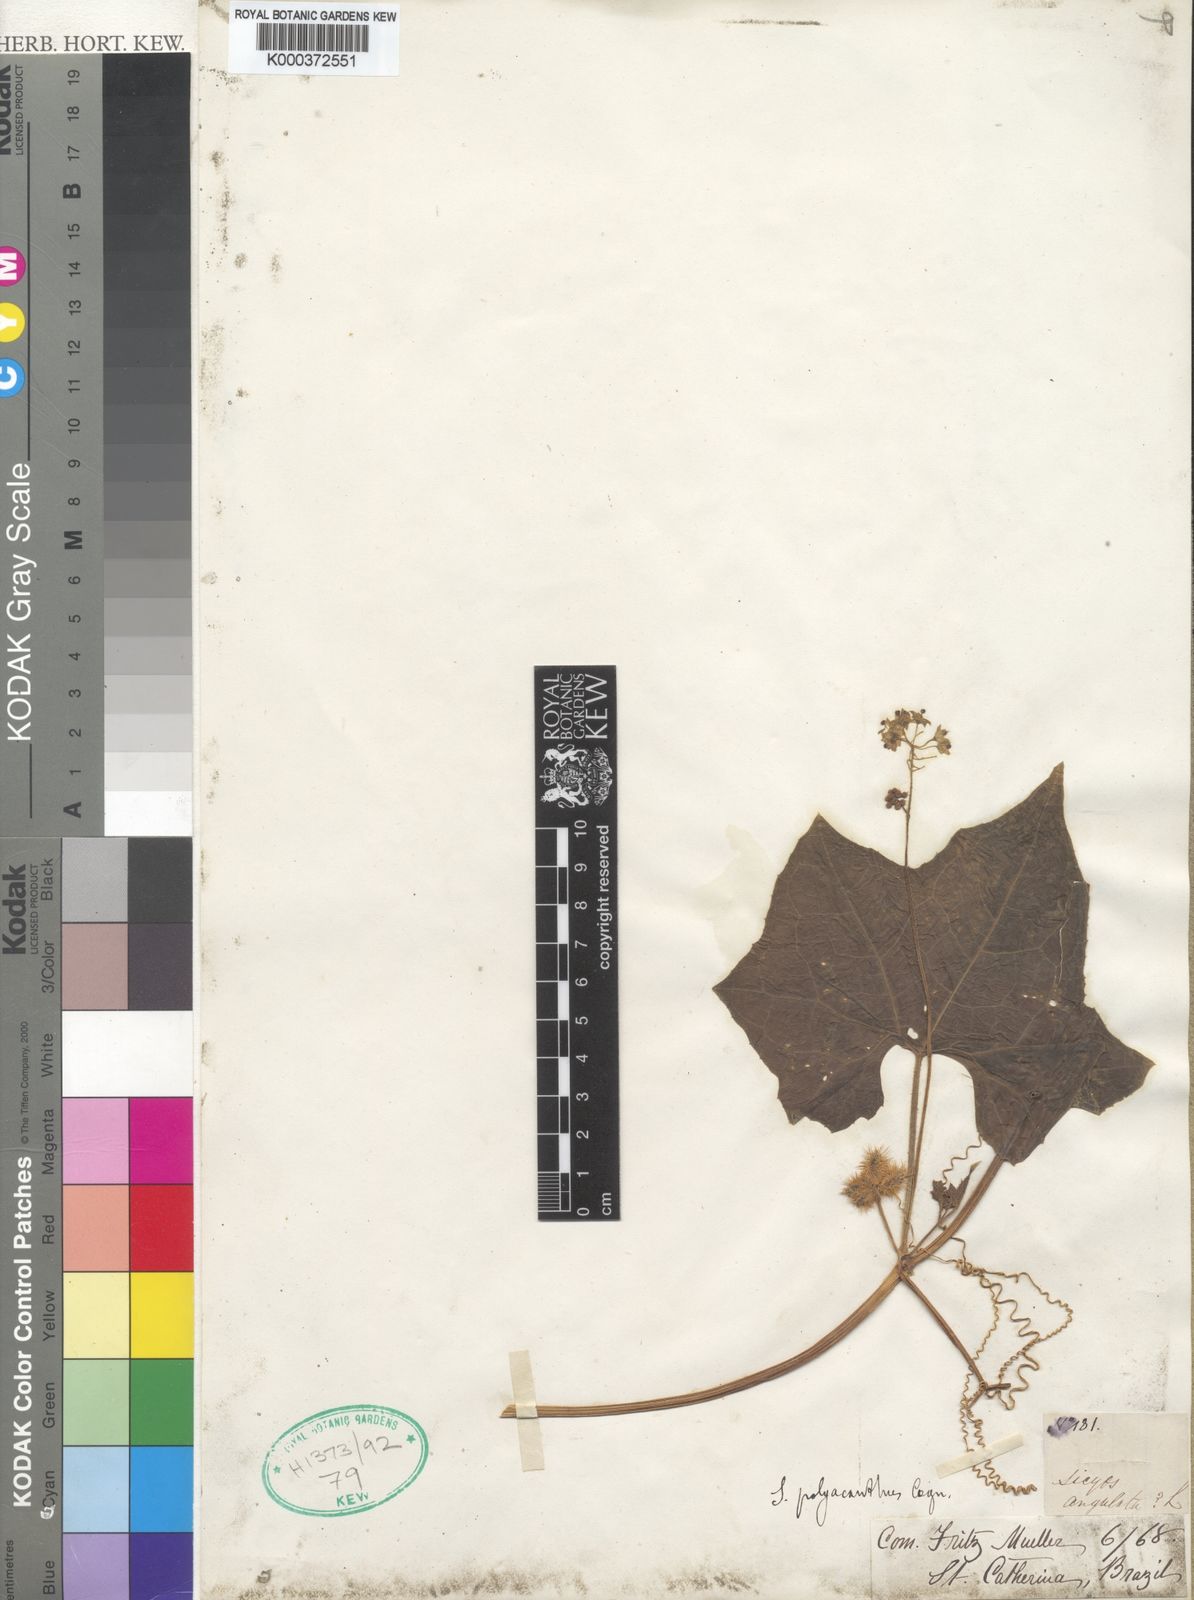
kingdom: Plantae
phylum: Tracheophyta
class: Magnoliopsida
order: Cucurbitales
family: Cucurbitaceae
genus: Sicyos
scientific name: Sicyos polyacanthos
